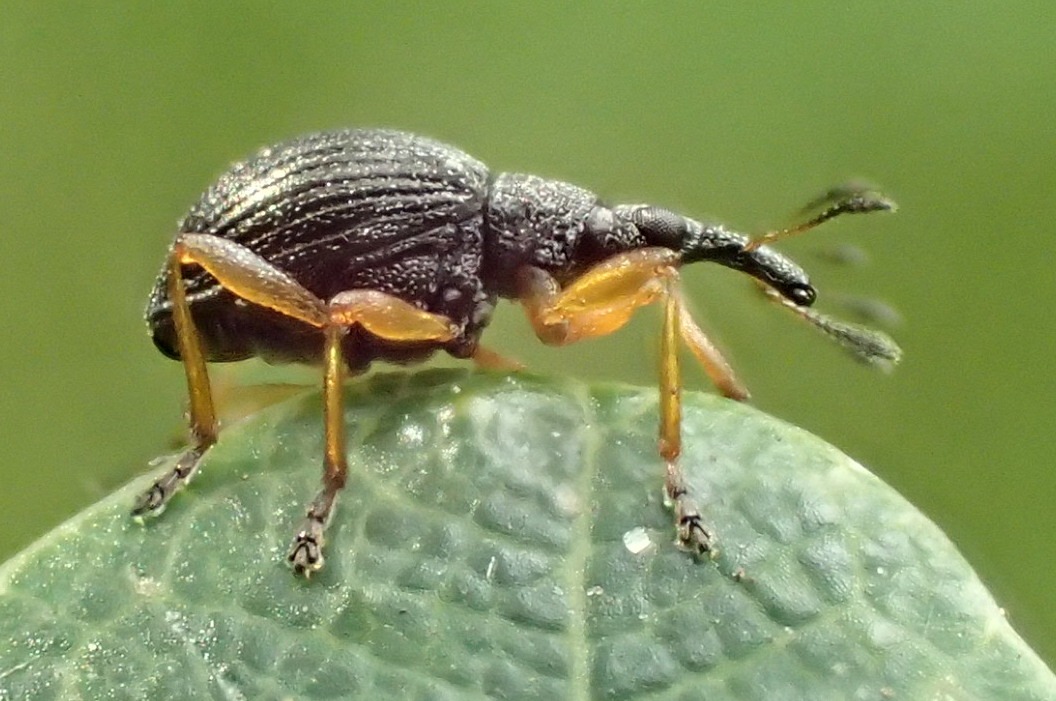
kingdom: Animalia
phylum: Arthropoda
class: Insecta
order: Coleoptera
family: Apionidae
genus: Protapion
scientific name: Protapion fulvipes
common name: Hvidkløversnudebille
